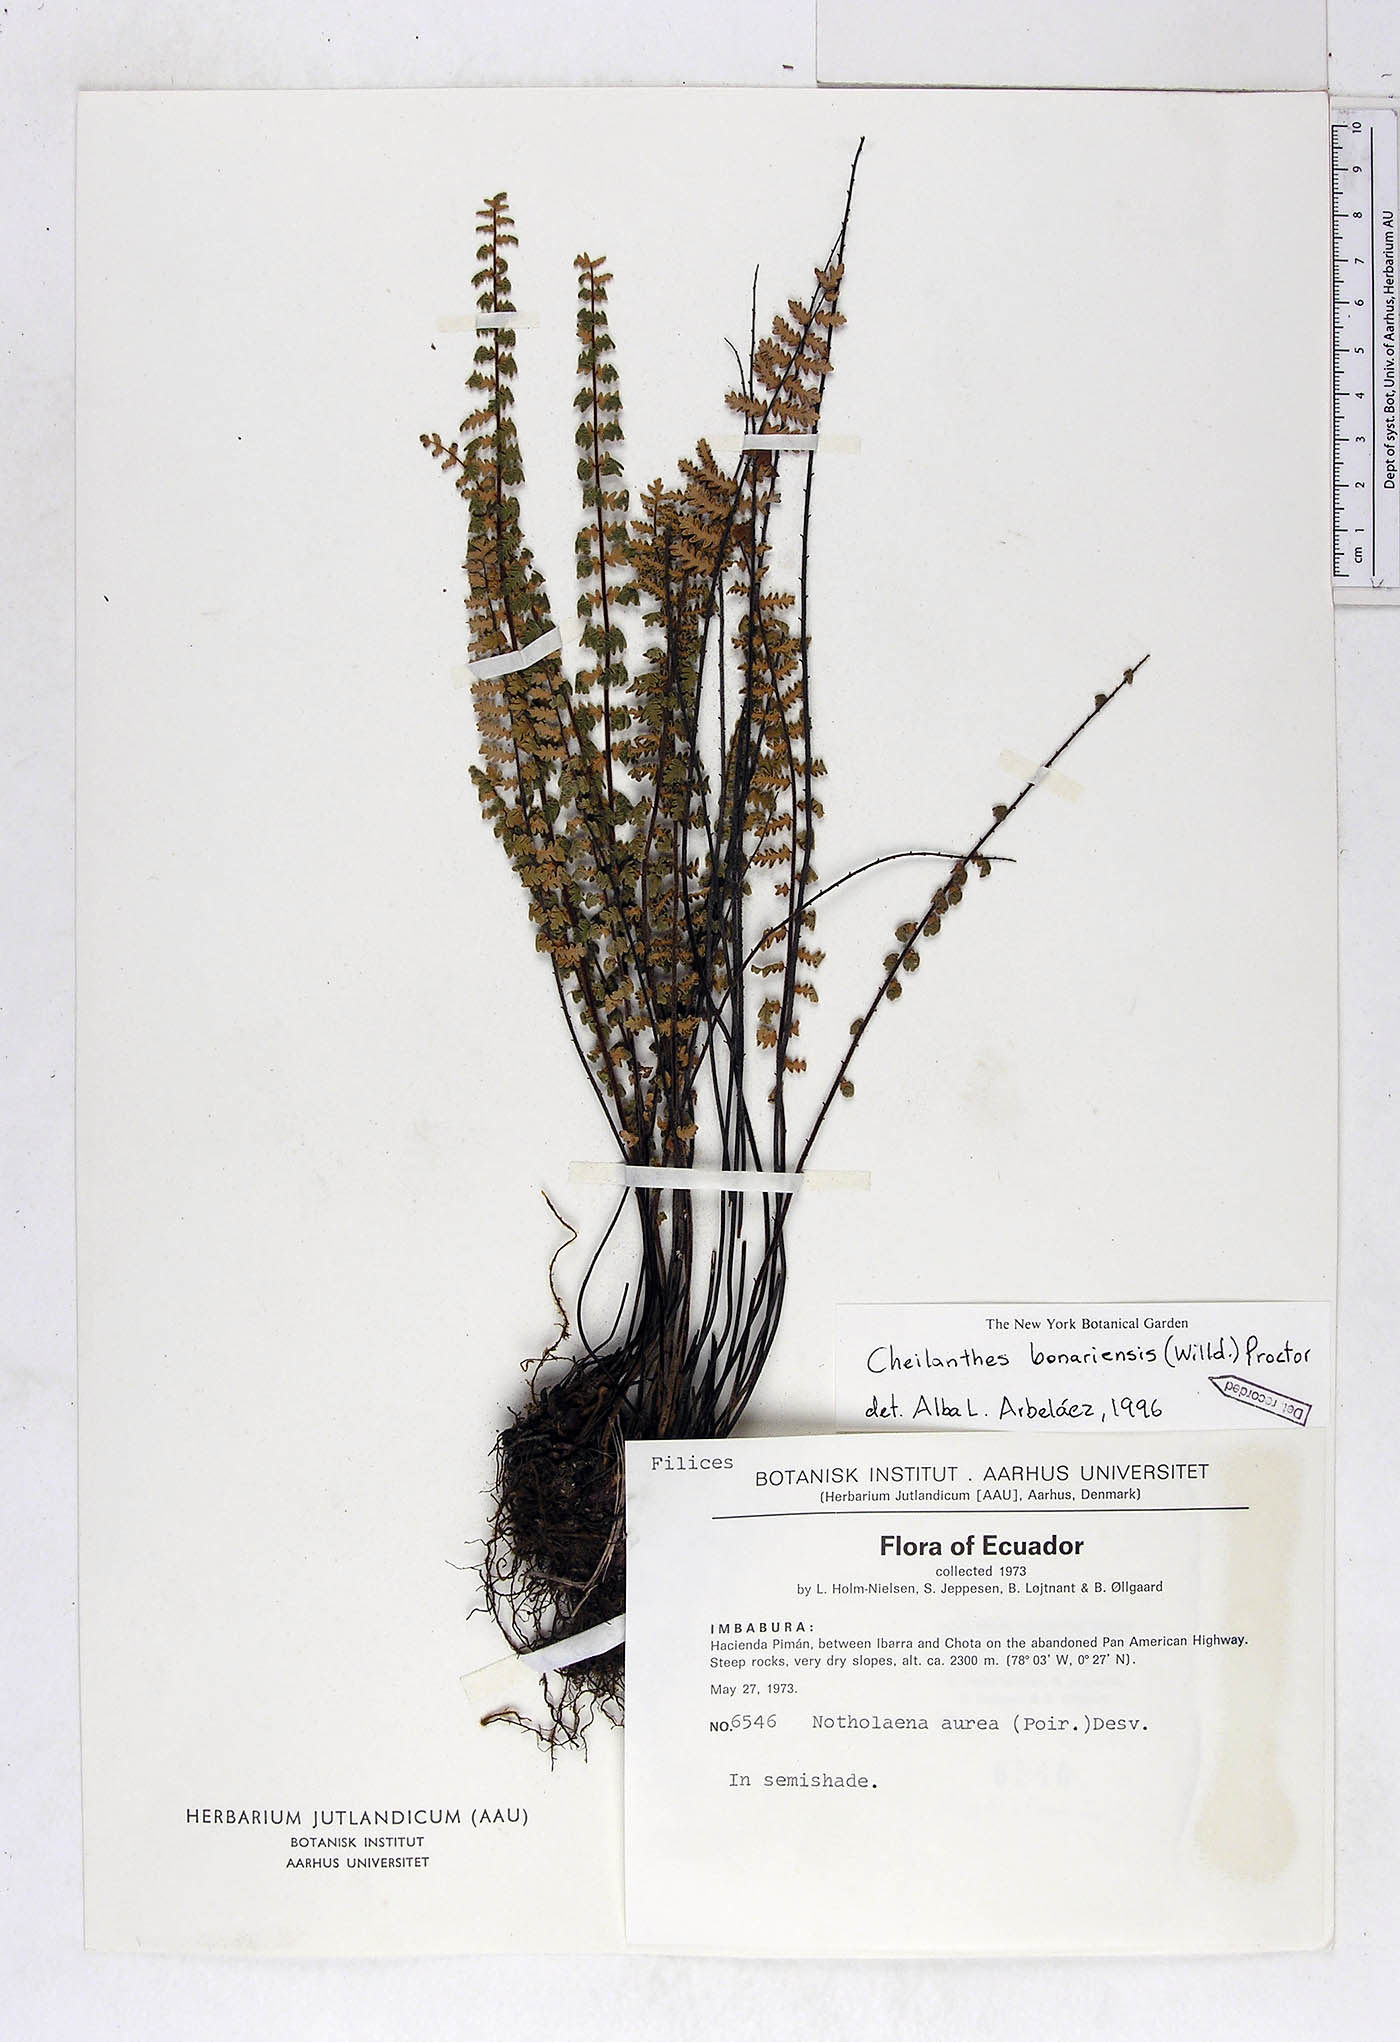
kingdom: Plantae
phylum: Tracheophyta
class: Polypodiopsida
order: Polypodiales
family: Pteridaceae
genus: Myriopteris
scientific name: Myriopteris aurea
